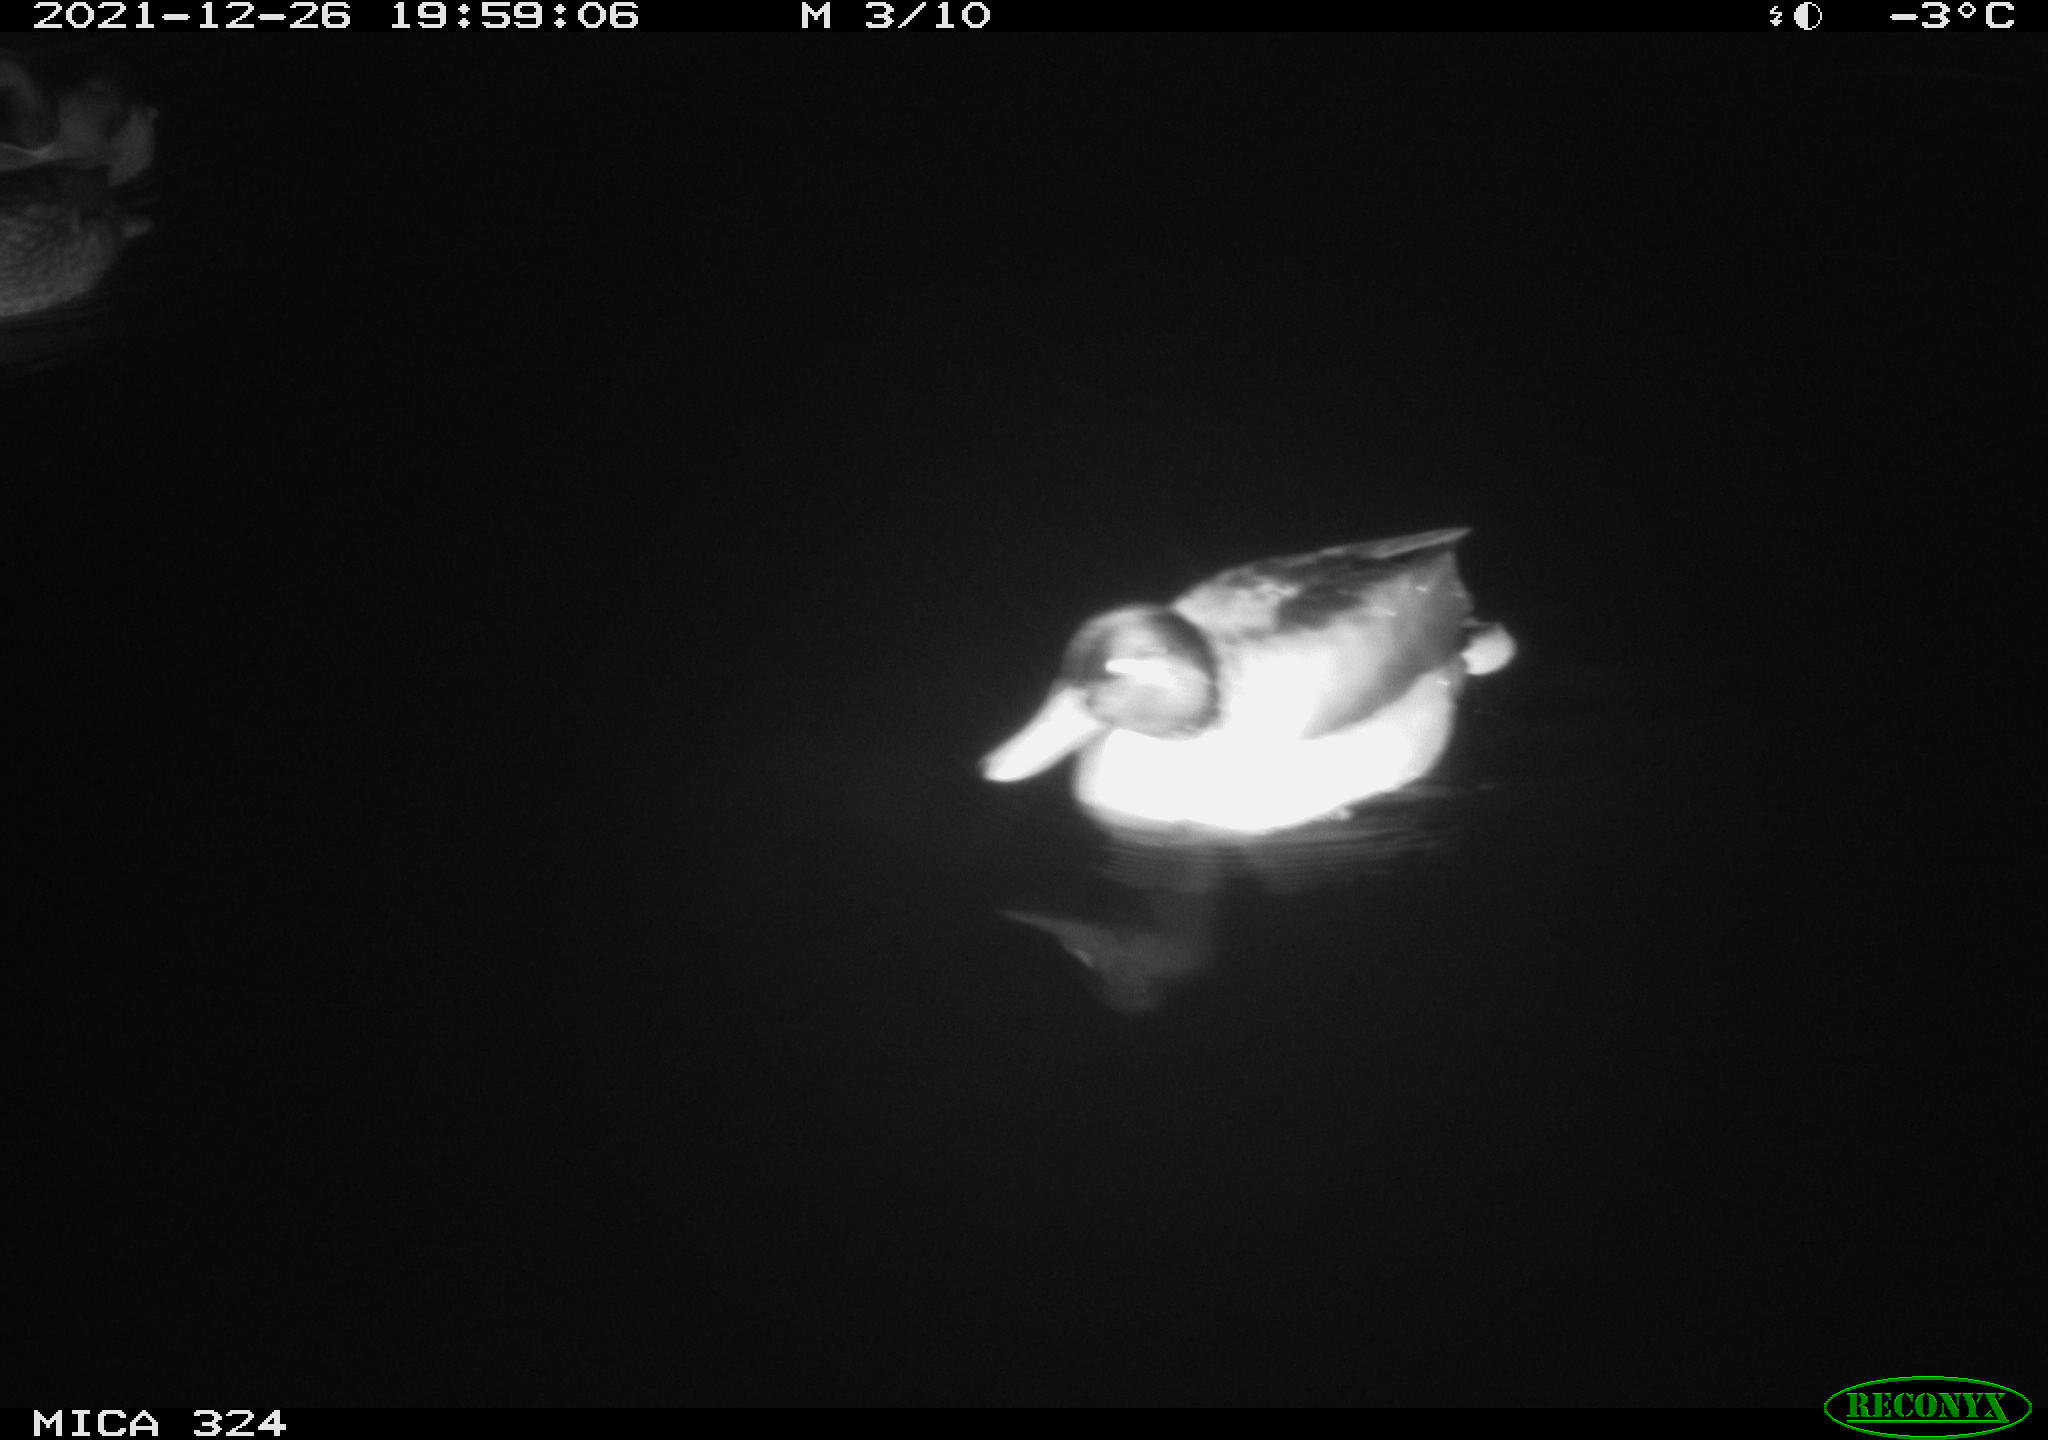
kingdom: Animalia
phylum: Chordata
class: Aves
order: Anseriformes
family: Anatidae
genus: Anas
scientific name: Anas platyrhynchos
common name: Mallard
